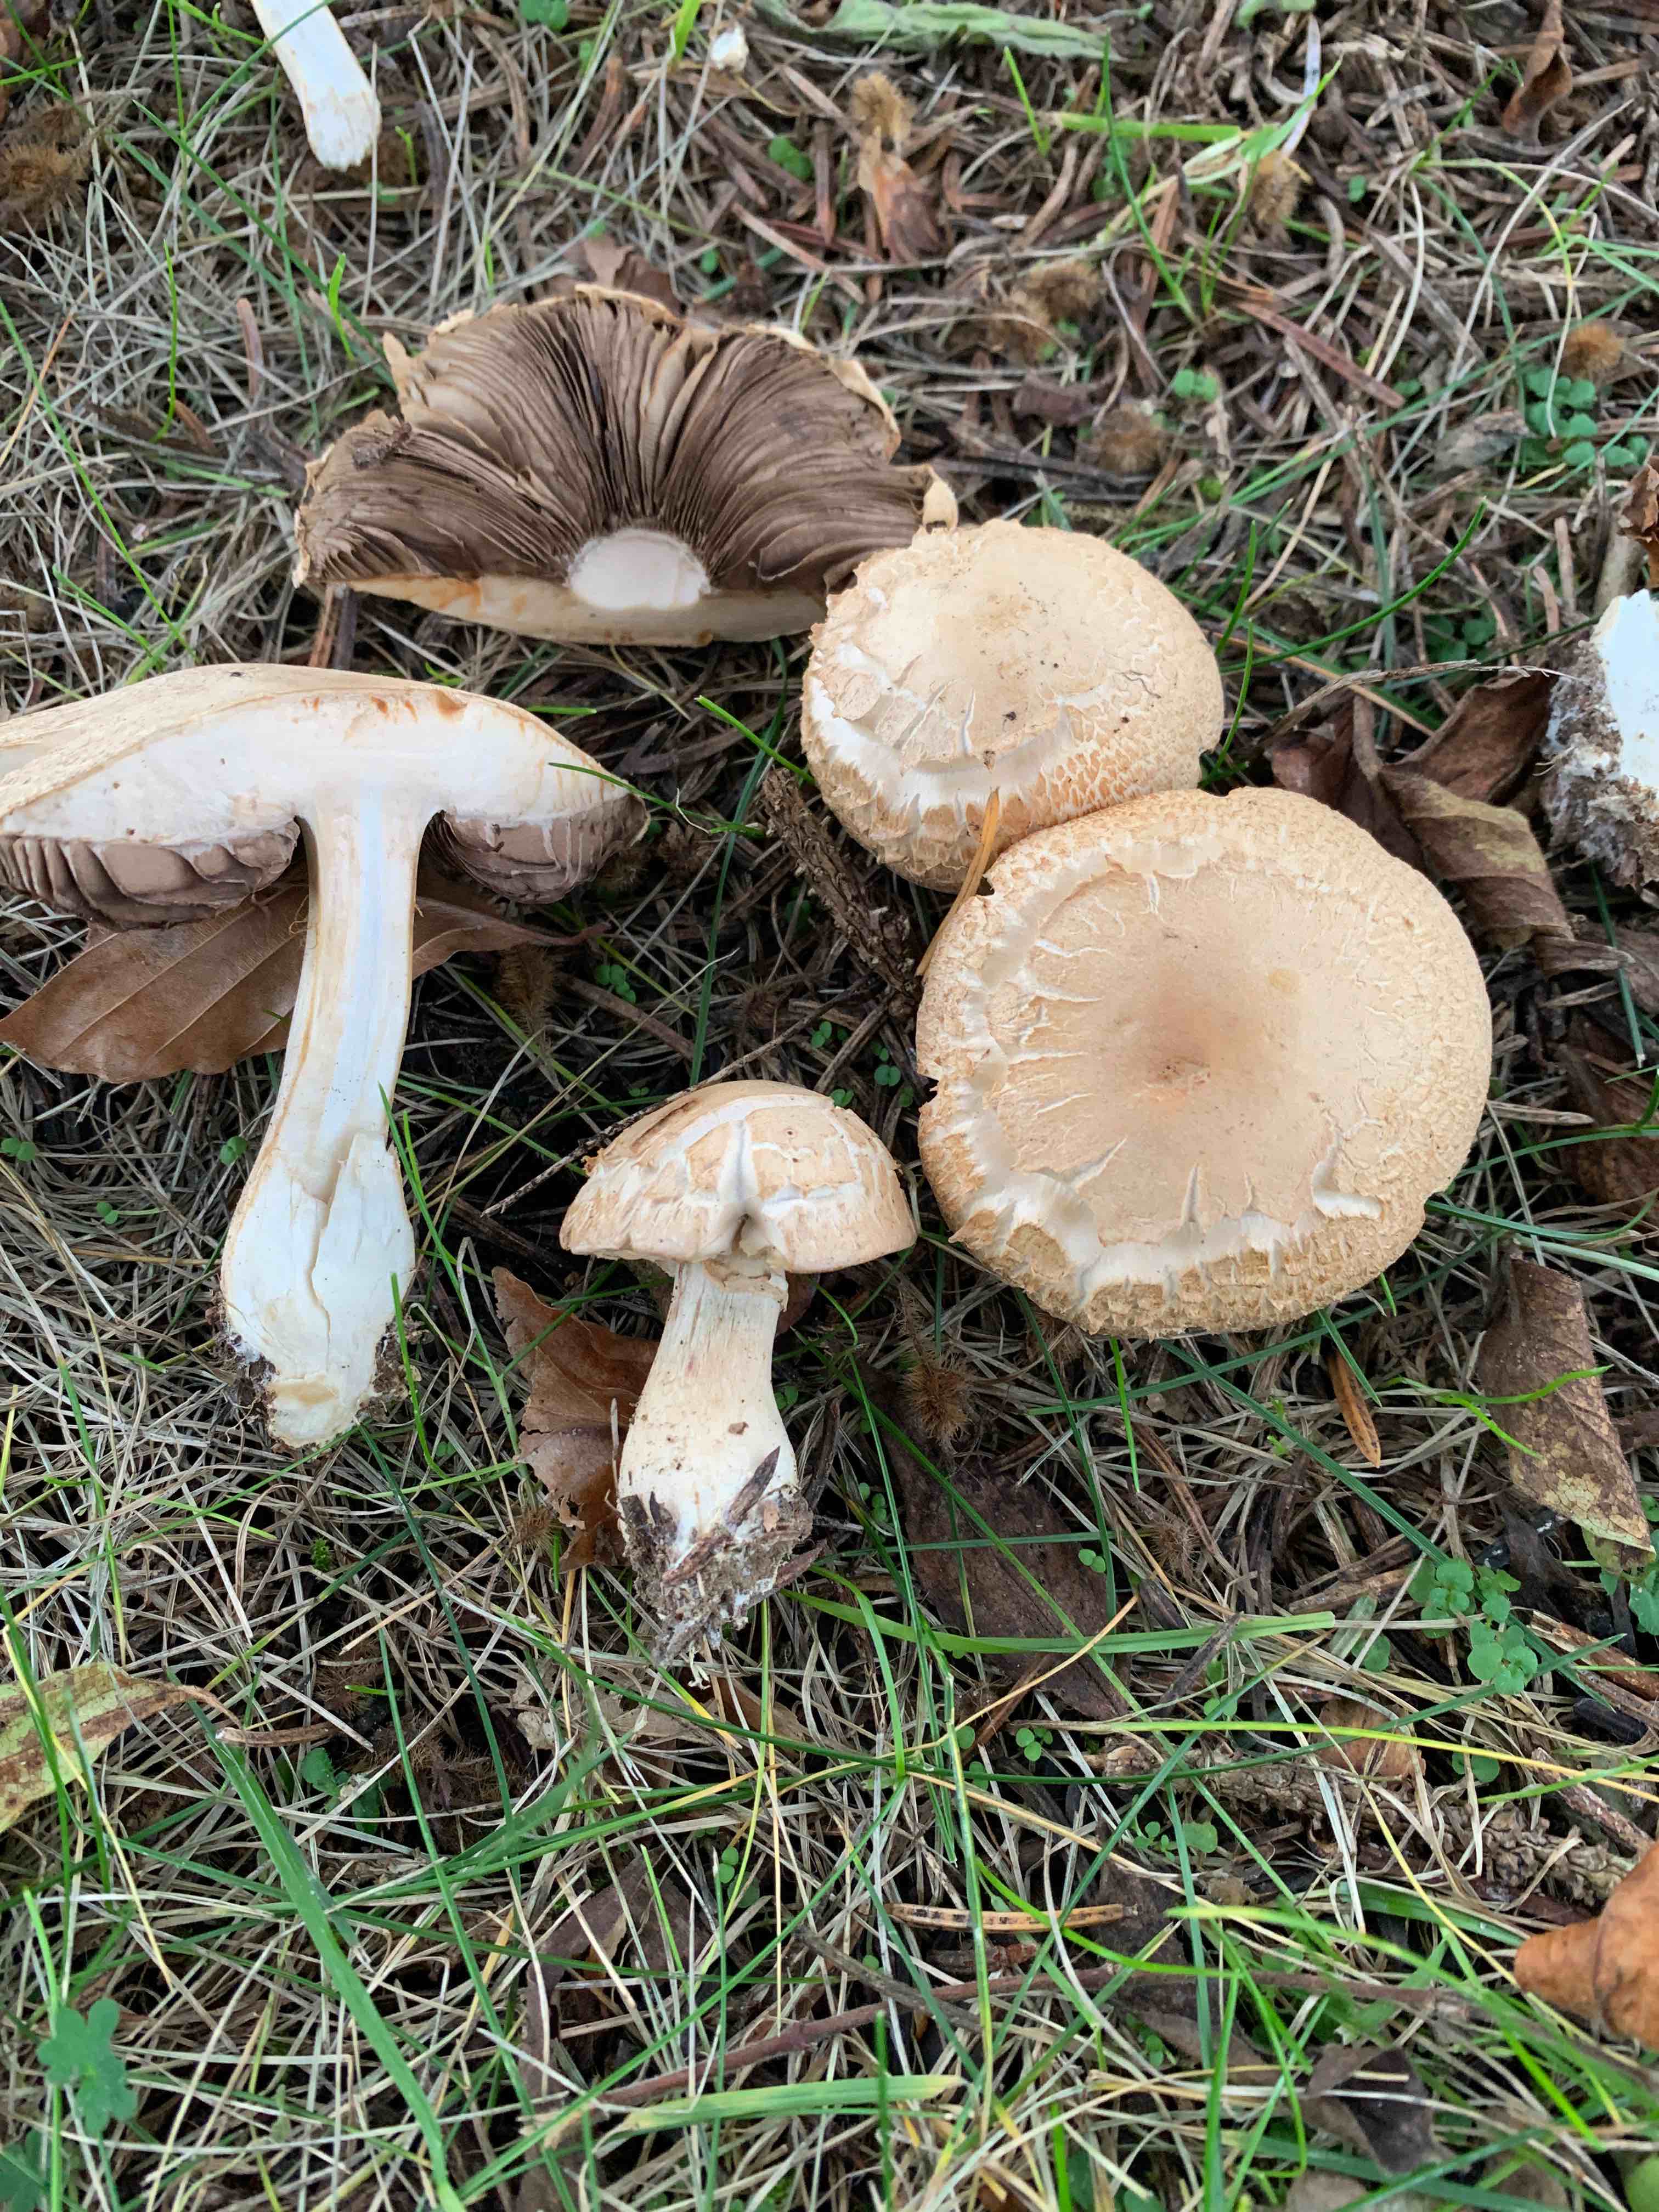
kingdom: Fungi
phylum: Basidiomycota
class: Agaricomycetes
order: Agaricales
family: Agaricaceae
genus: Agaricus
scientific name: Agaricus
